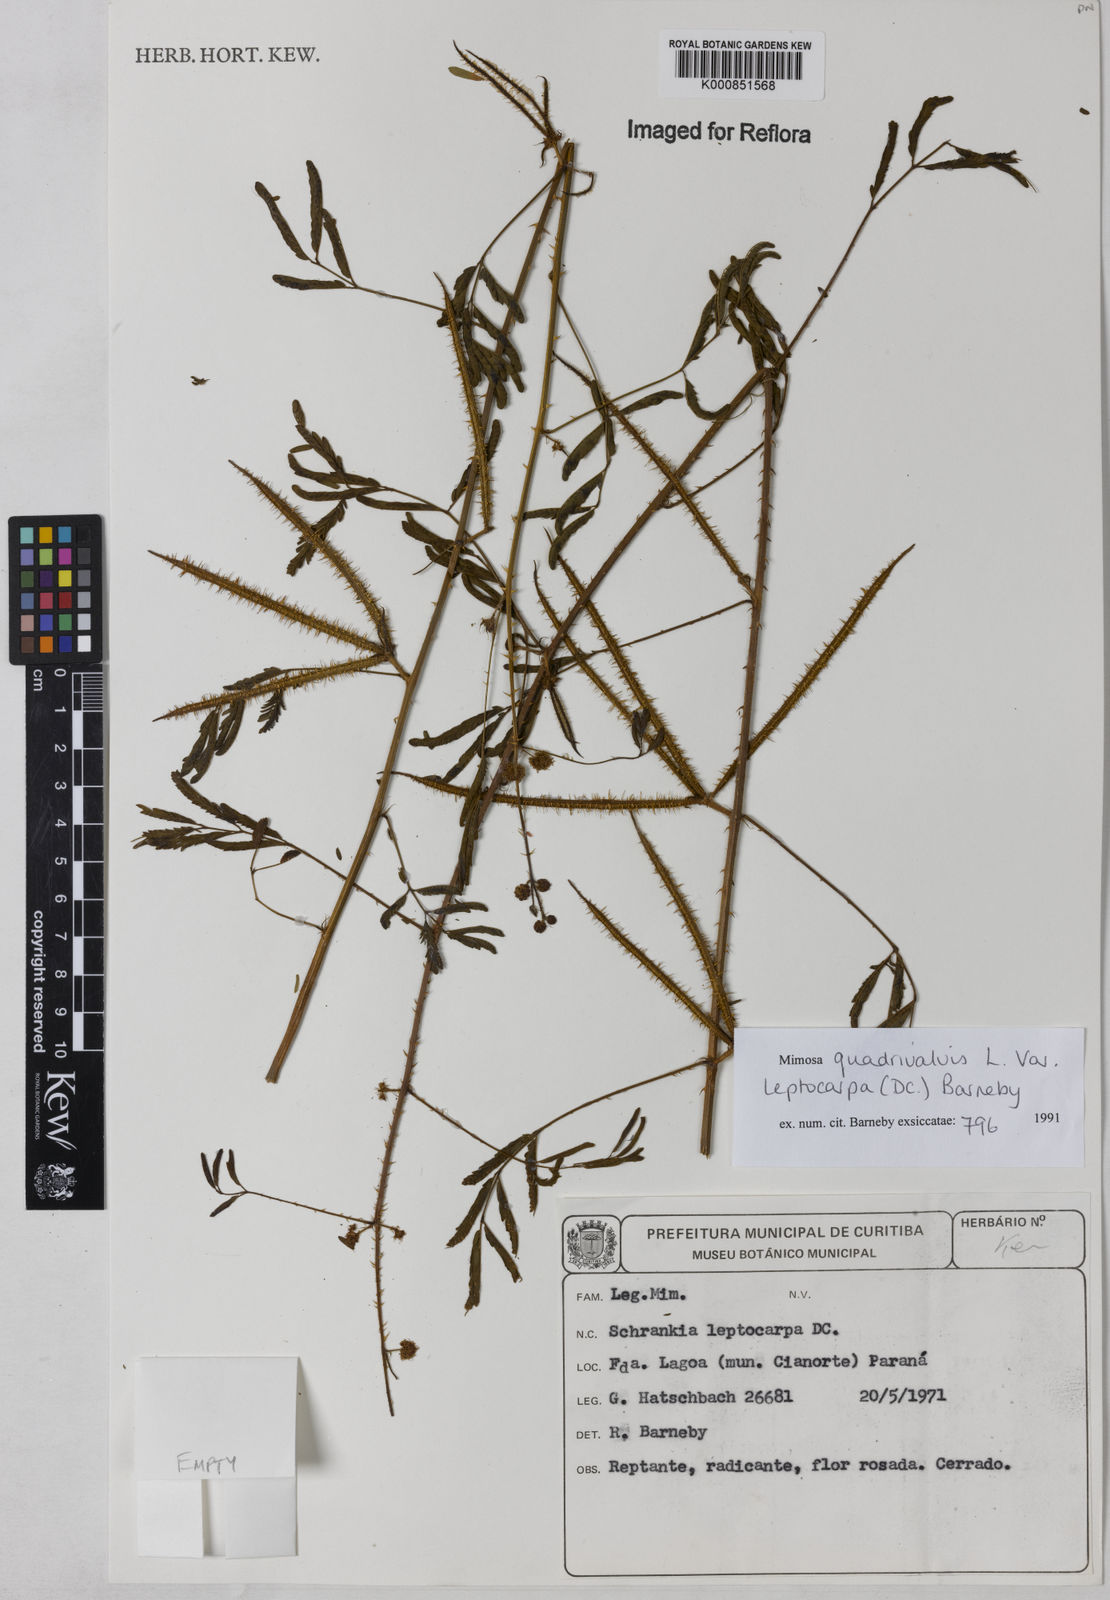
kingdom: Plantae
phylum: Tracheophyta
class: Magnoliopsida
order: Fabales
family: Fabaceae
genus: Mimosa
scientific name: Mimosa candollei
